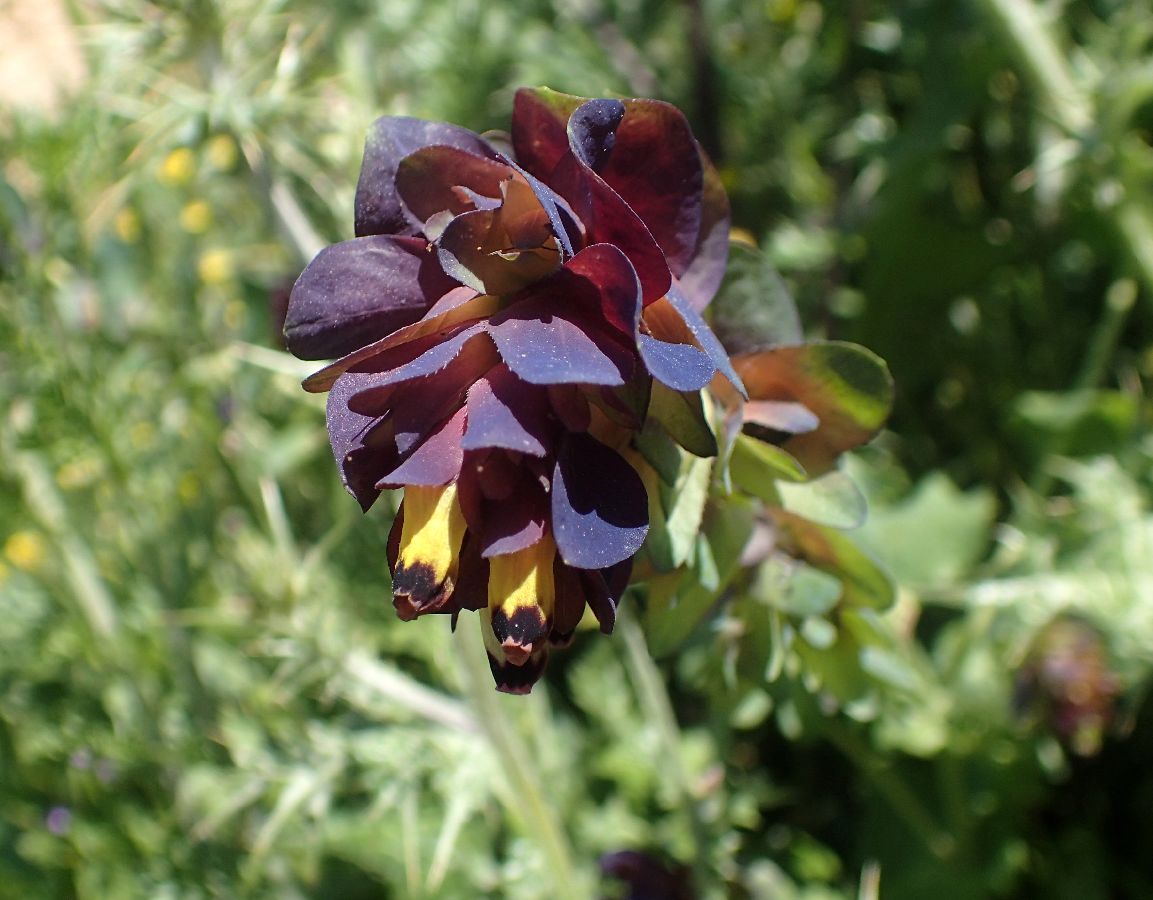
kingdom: Plantae
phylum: Tracheophyta
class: Magnoliopsida
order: Boraginales
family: Boraginaceae
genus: Cerinthe
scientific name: Cerinthe retorta
